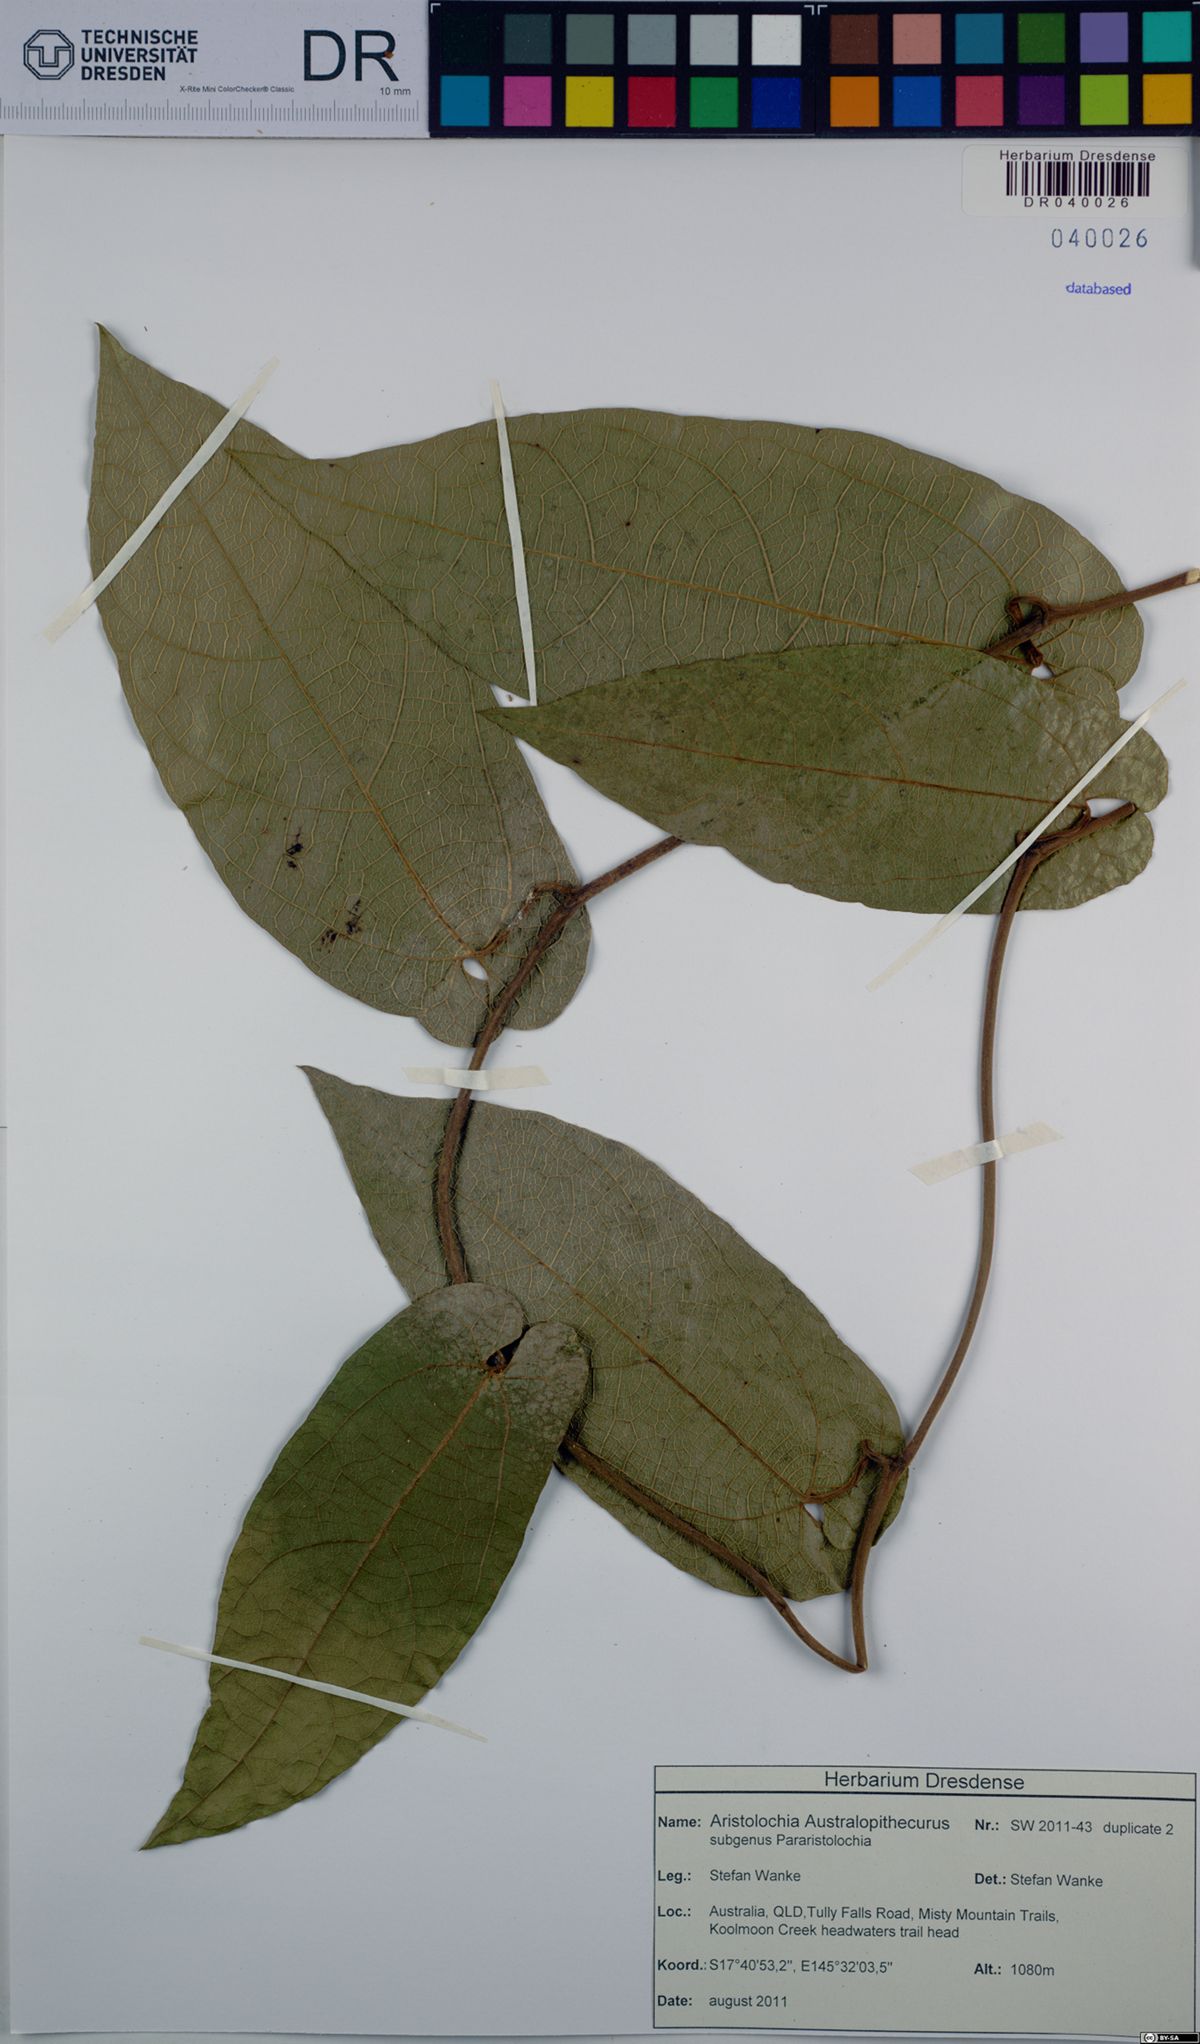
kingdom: Plantae
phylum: Tracheophyta
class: Magnoliopsida
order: Piperales
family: Aristolochiaceae
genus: Aristolochia
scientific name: Aristolochia australopithecurus
